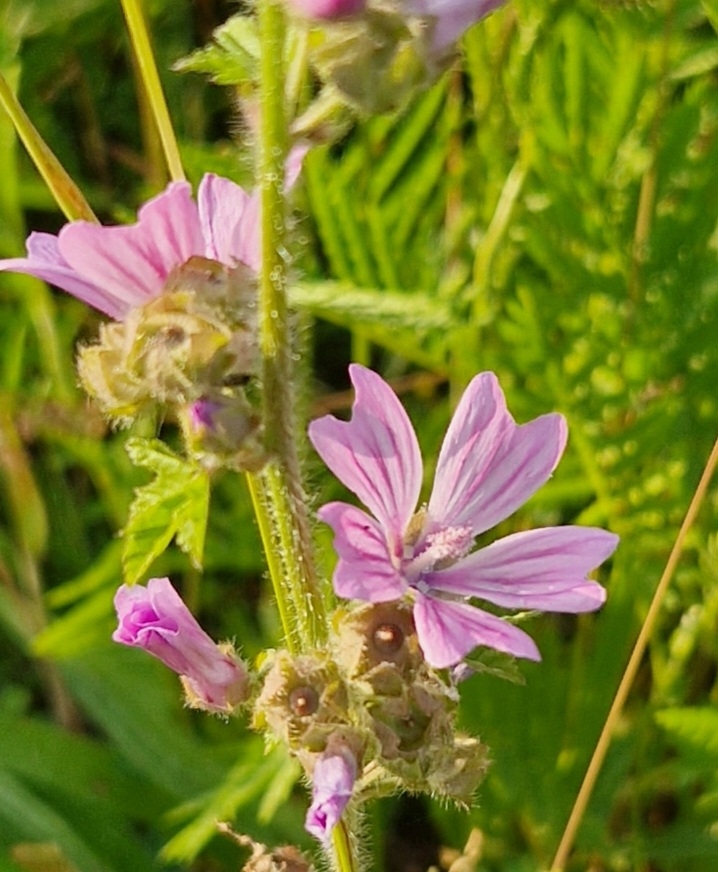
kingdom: Plantae
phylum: Tracheophyta
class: Magnoliopsida
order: Malvales
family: Malvaceae
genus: Malva
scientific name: Malva sylvestris
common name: Almindelig katost
